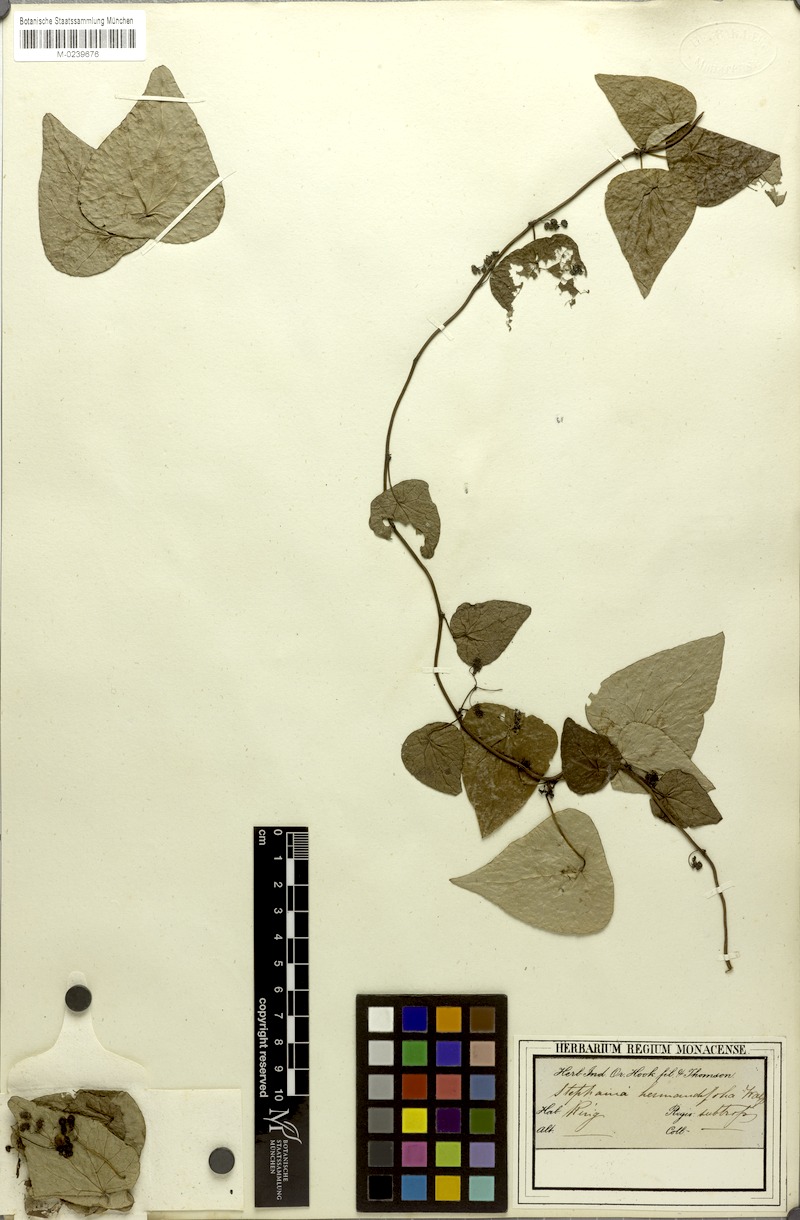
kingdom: Plantae
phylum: Tracheophyta
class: Magnoliopsida
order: Ranunculales
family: Menispermaceae
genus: Stephania
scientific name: Stephania japonica
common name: Snake vine
